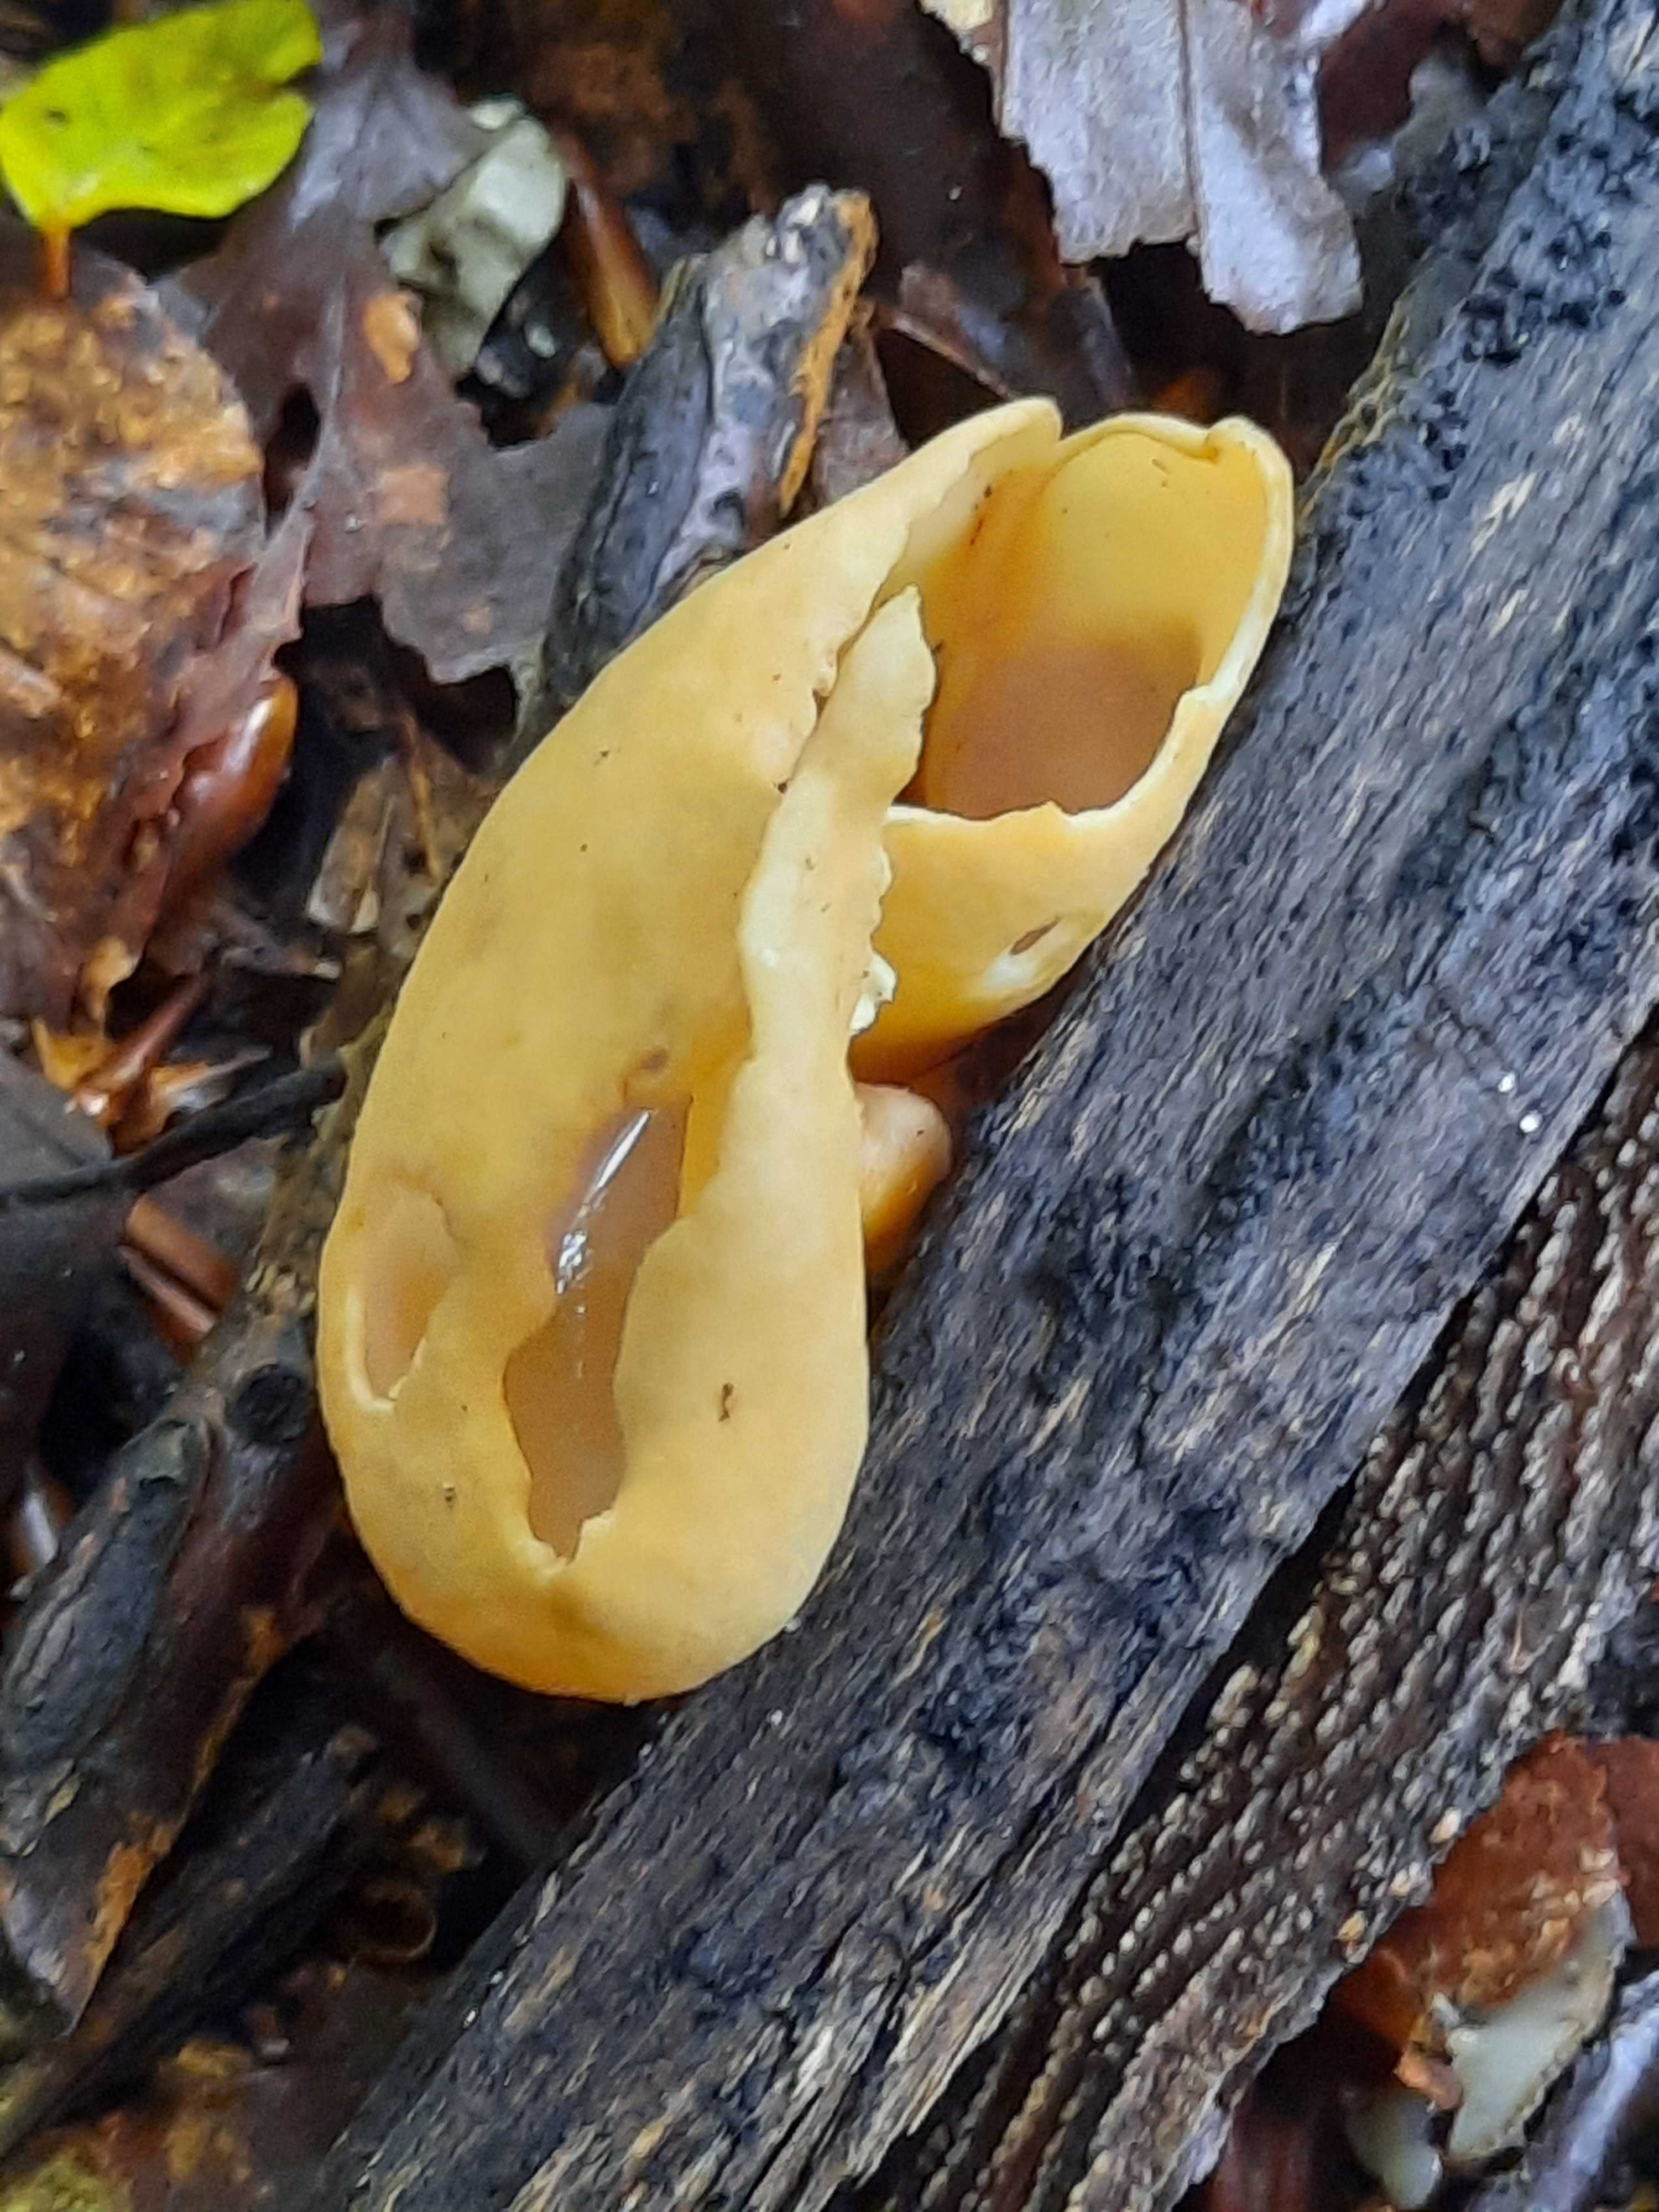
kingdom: Fungi
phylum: Ascomycota
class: Pezizomycetes
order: Pezizales
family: Otideaceae
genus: Otidea
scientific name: Otidea onotica
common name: æsel-ørebæger
